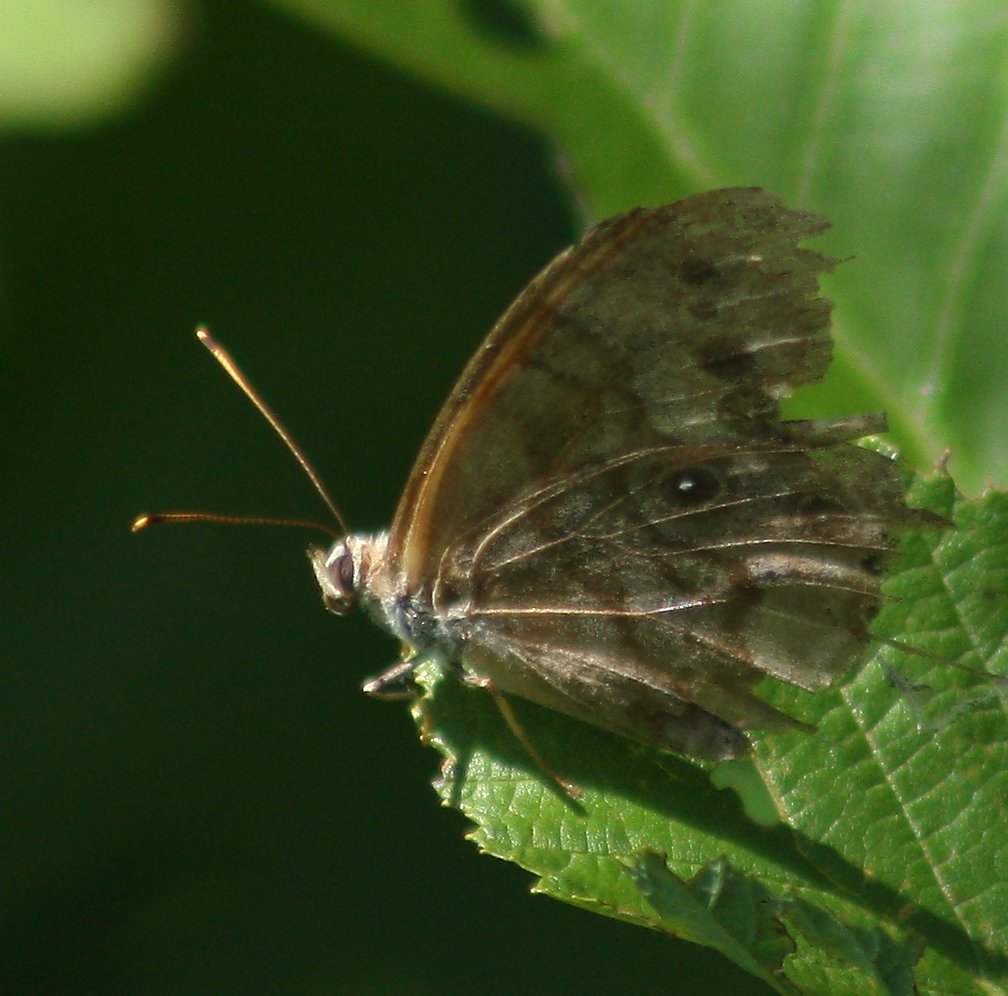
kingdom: Animalia
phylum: Arthropoda
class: Insecta
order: Lepidoptera
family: Nymphalidae
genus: Lethe
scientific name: Lethe eurydice
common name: Eyed Brown
